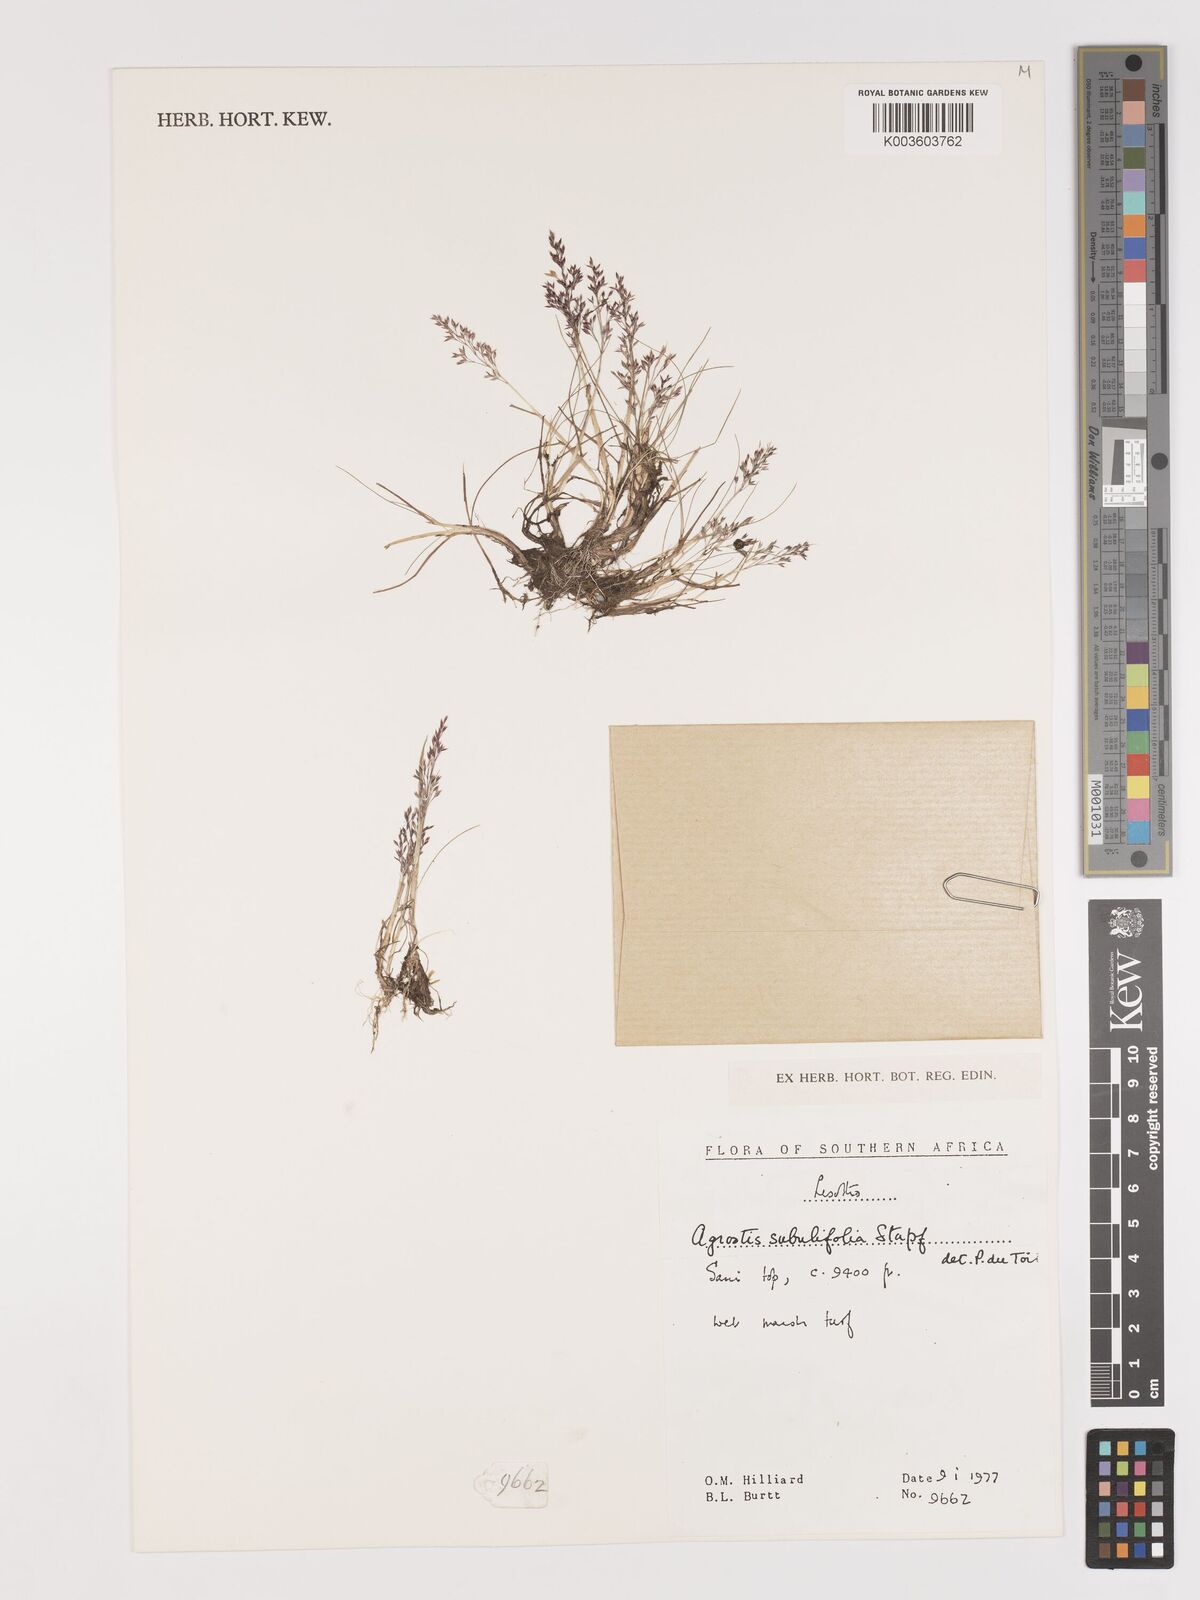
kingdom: Plantae
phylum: Tracheophyta
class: Liliopsida
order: Poales
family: Poaceae
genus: Agrostis
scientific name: Agrostis subulifolia
